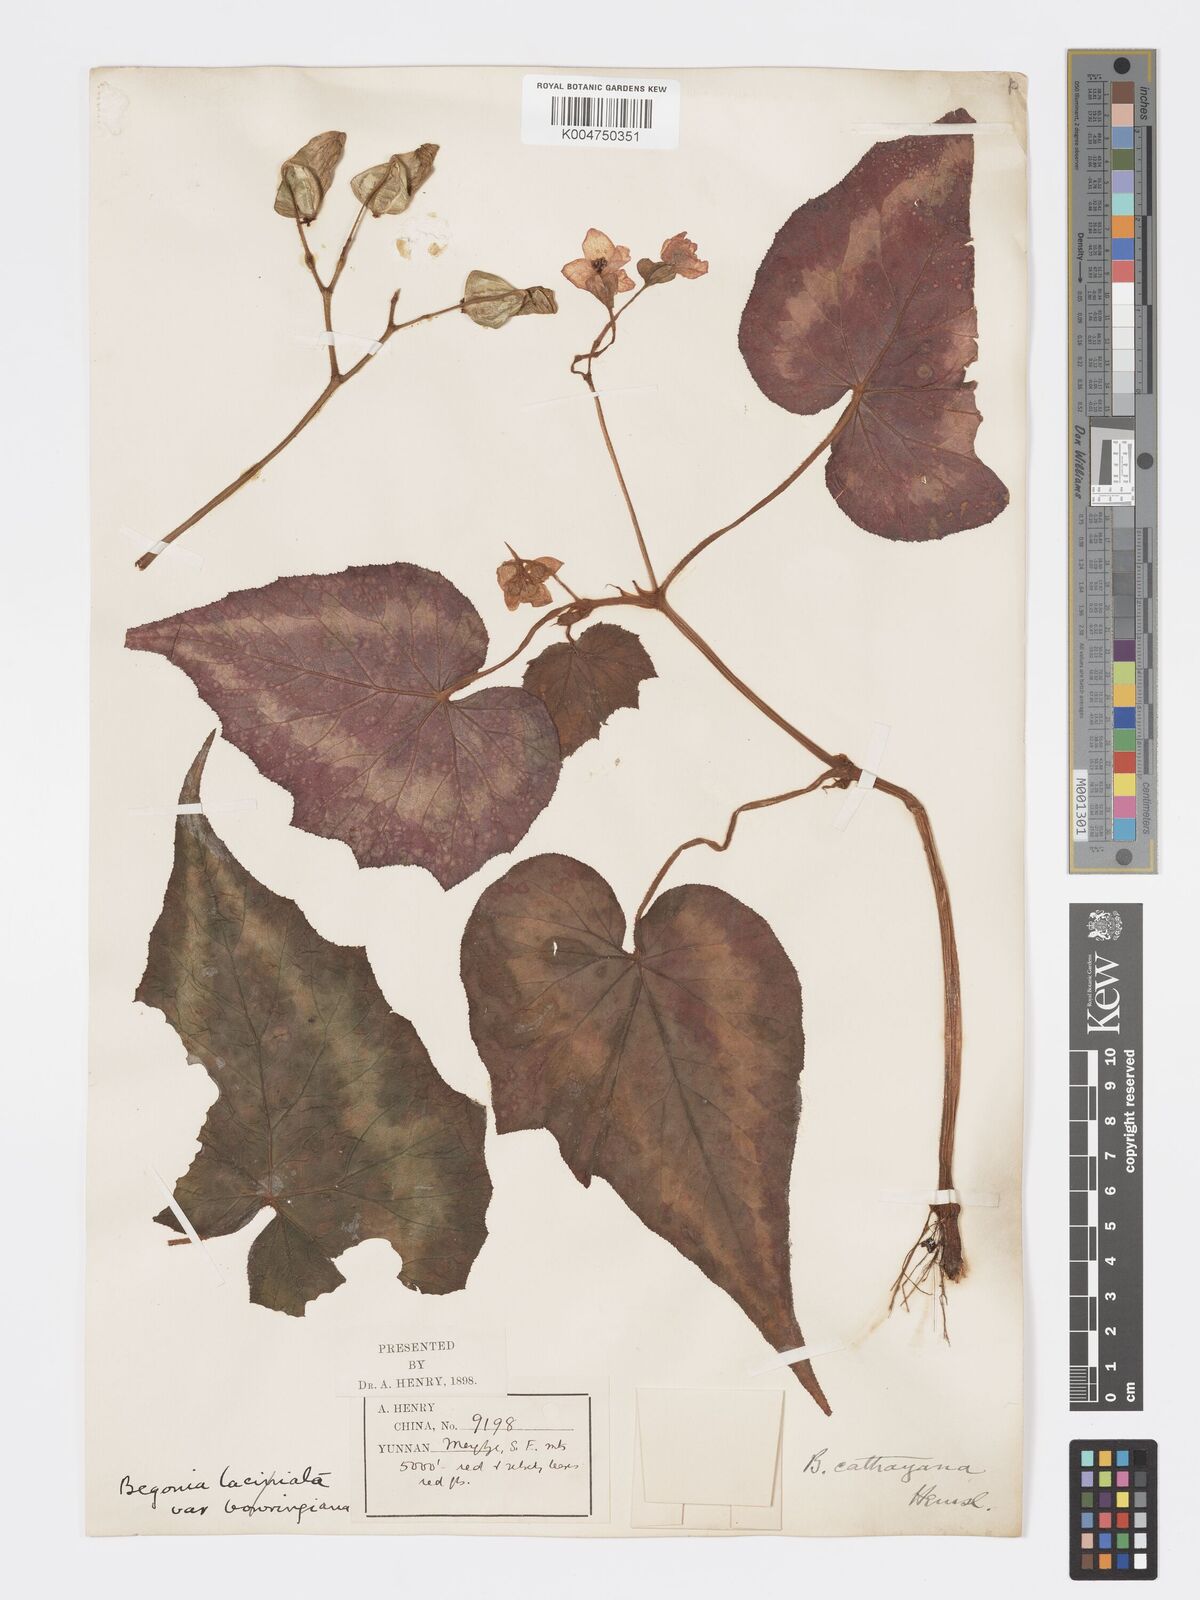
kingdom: Plantae
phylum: Tracheophyta
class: Magnoliopsida
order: Cucurbitales
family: Begoniaceae
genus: Begonia
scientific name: Begonia cathayana
